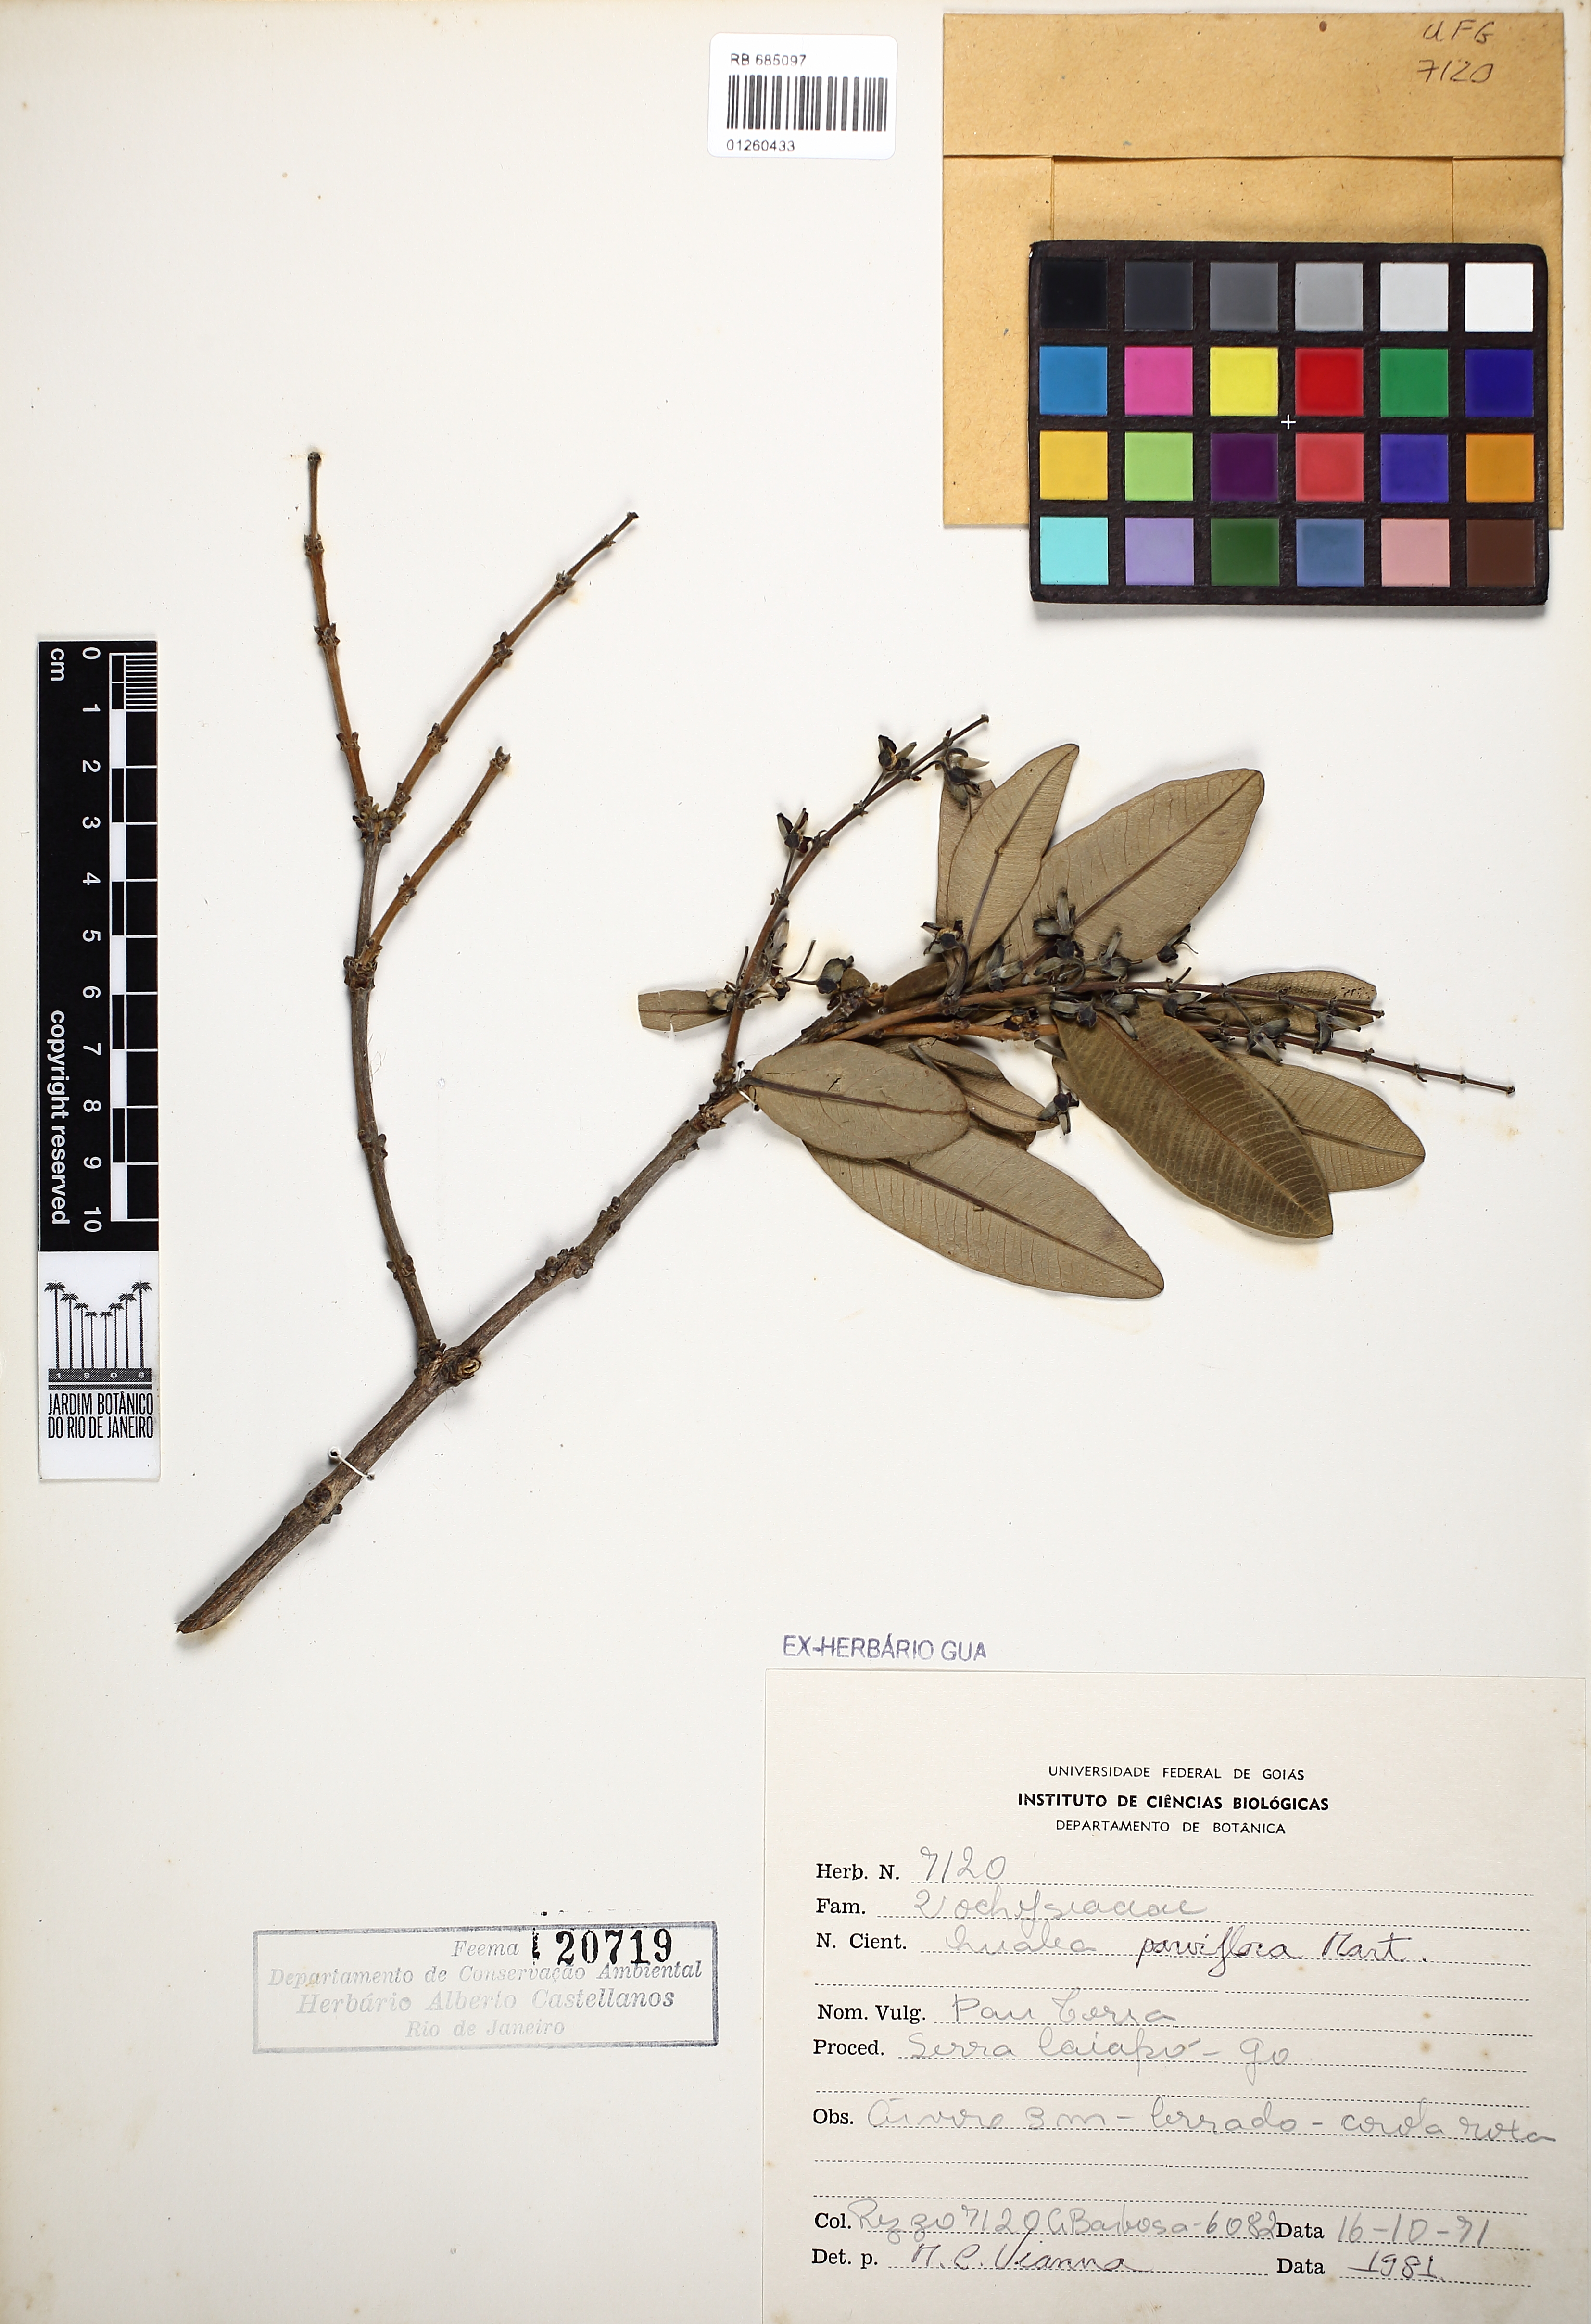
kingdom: Plantae
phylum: Tracheophyta
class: Magnoliopsida
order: Myrtales
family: Vochysiaceae
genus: Qualea
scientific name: Qualea parviflora
